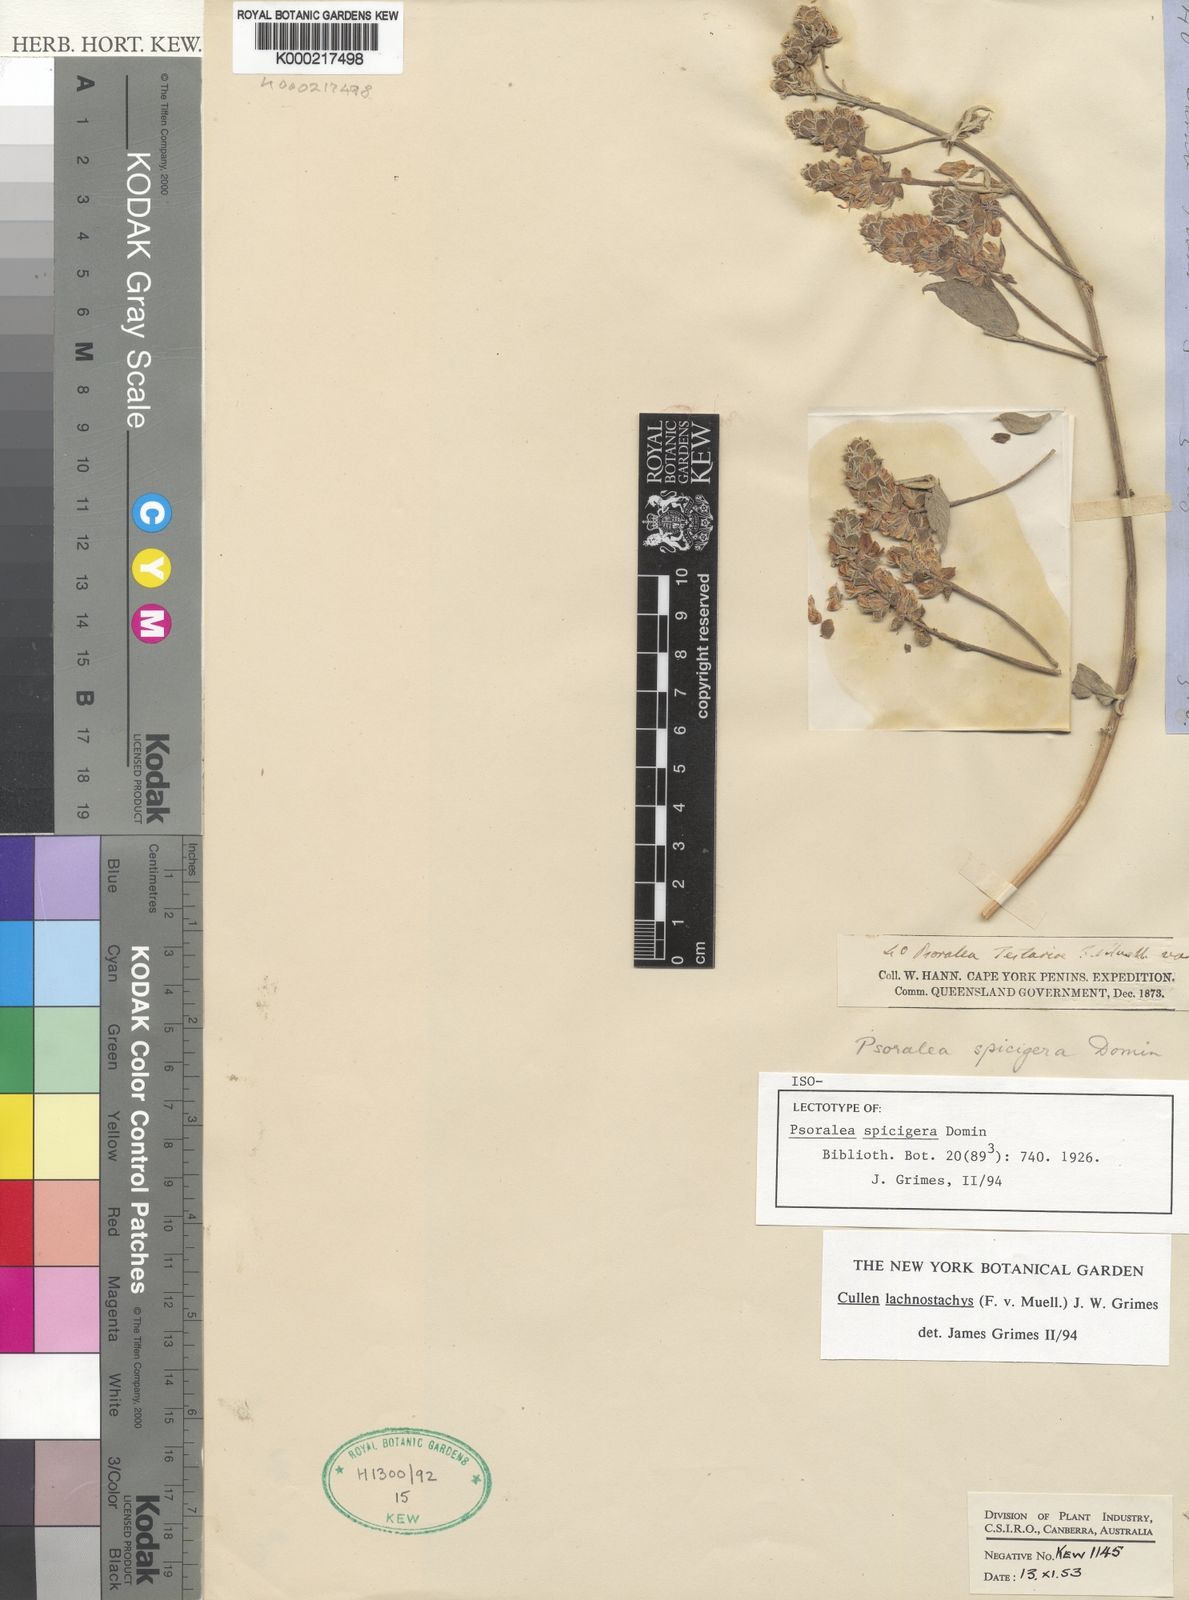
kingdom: Plantae
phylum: Tracheophyta
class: Magnoliopsida
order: Fabales
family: Fabaceae
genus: Cullen
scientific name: Cullen lachnostachys
